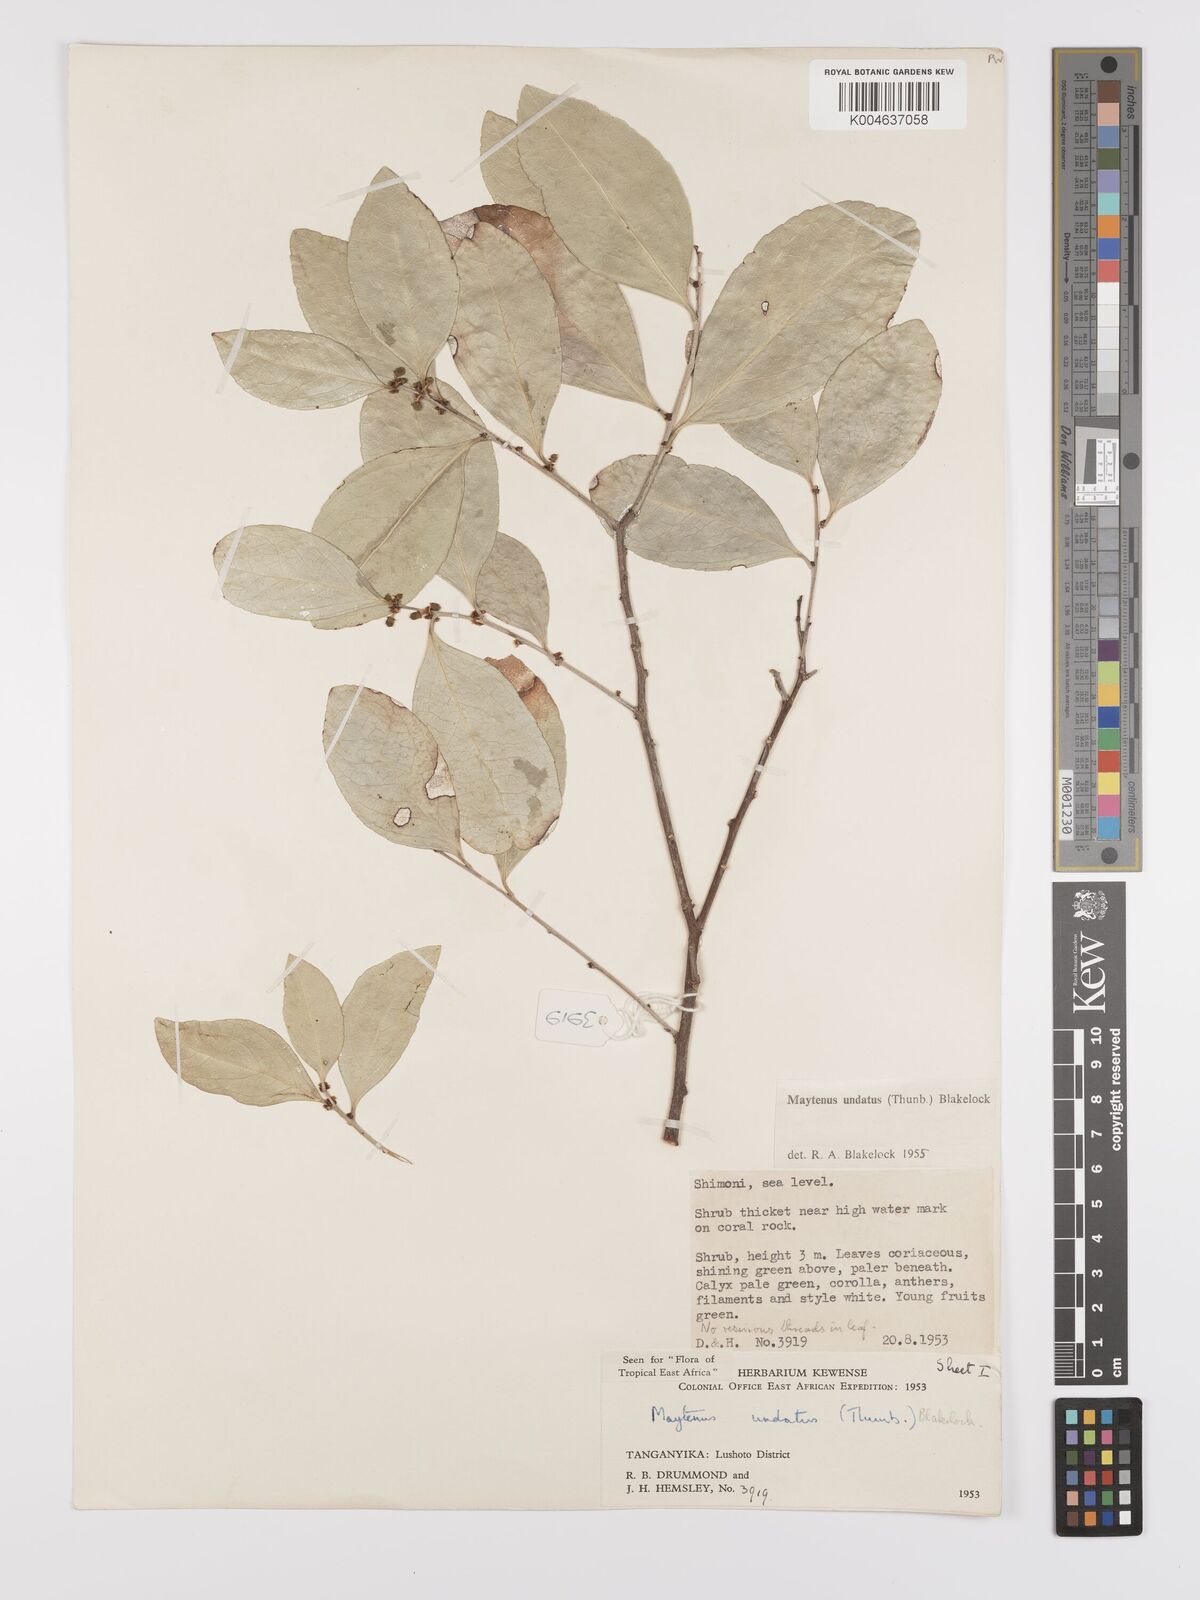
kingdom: Plantae
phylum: Tracheophyta
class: Magnoliopsida
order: Celastrales
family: Celastraceae
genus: Gymnosporia
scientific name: Gymnosporia undata
